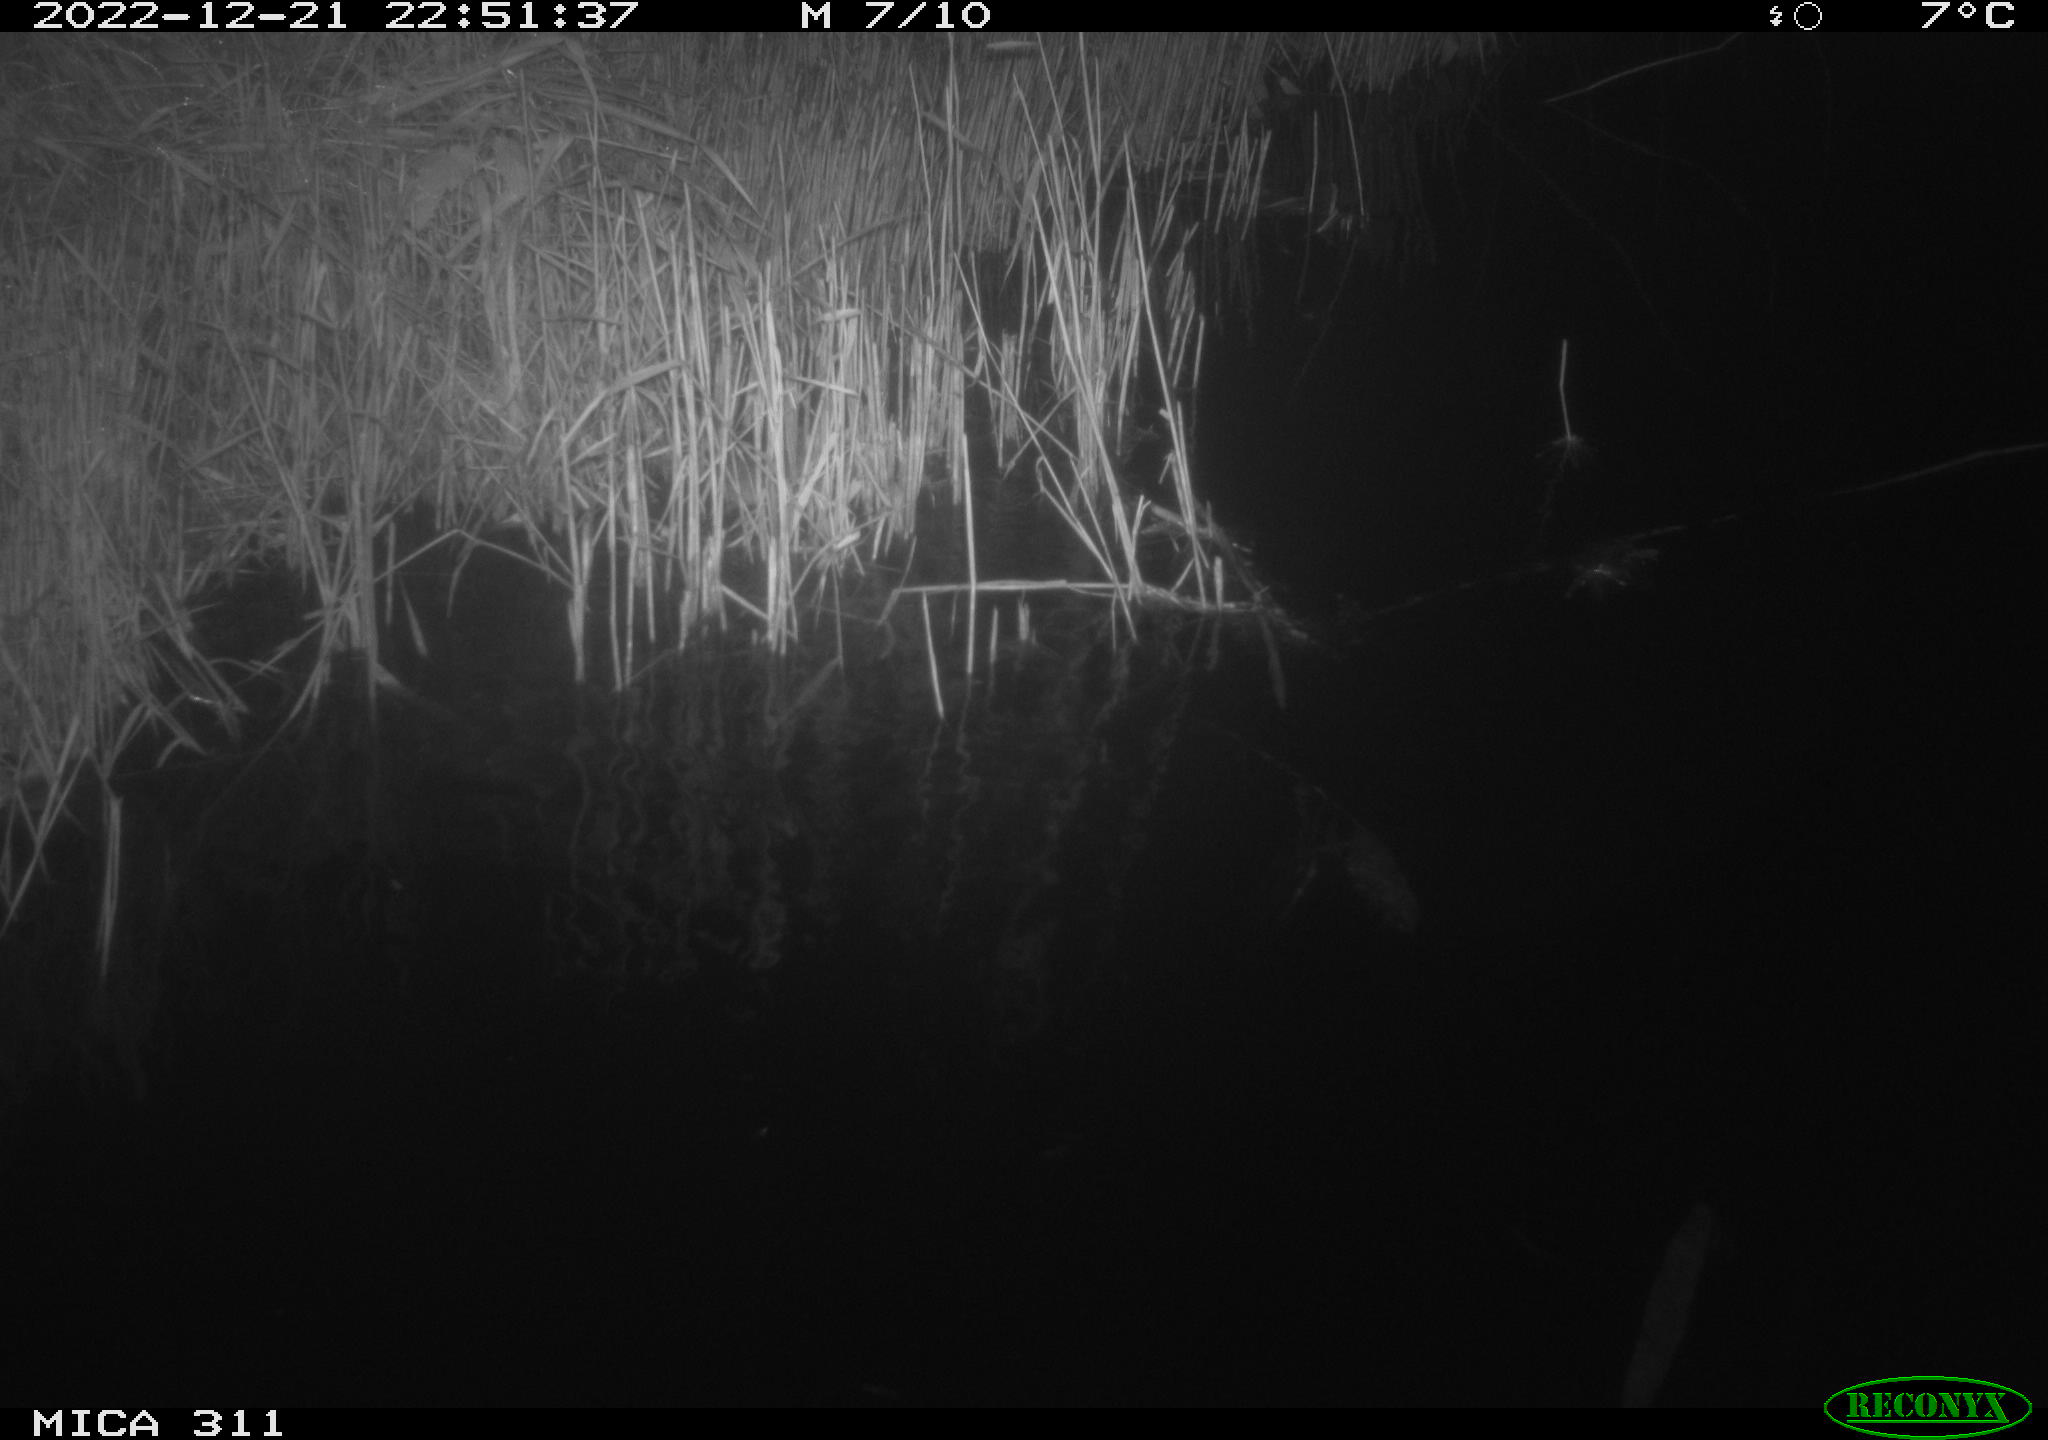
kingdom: Animalia
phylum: Chordata
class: Mammalia
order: Rodentia
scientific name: Rodentia
